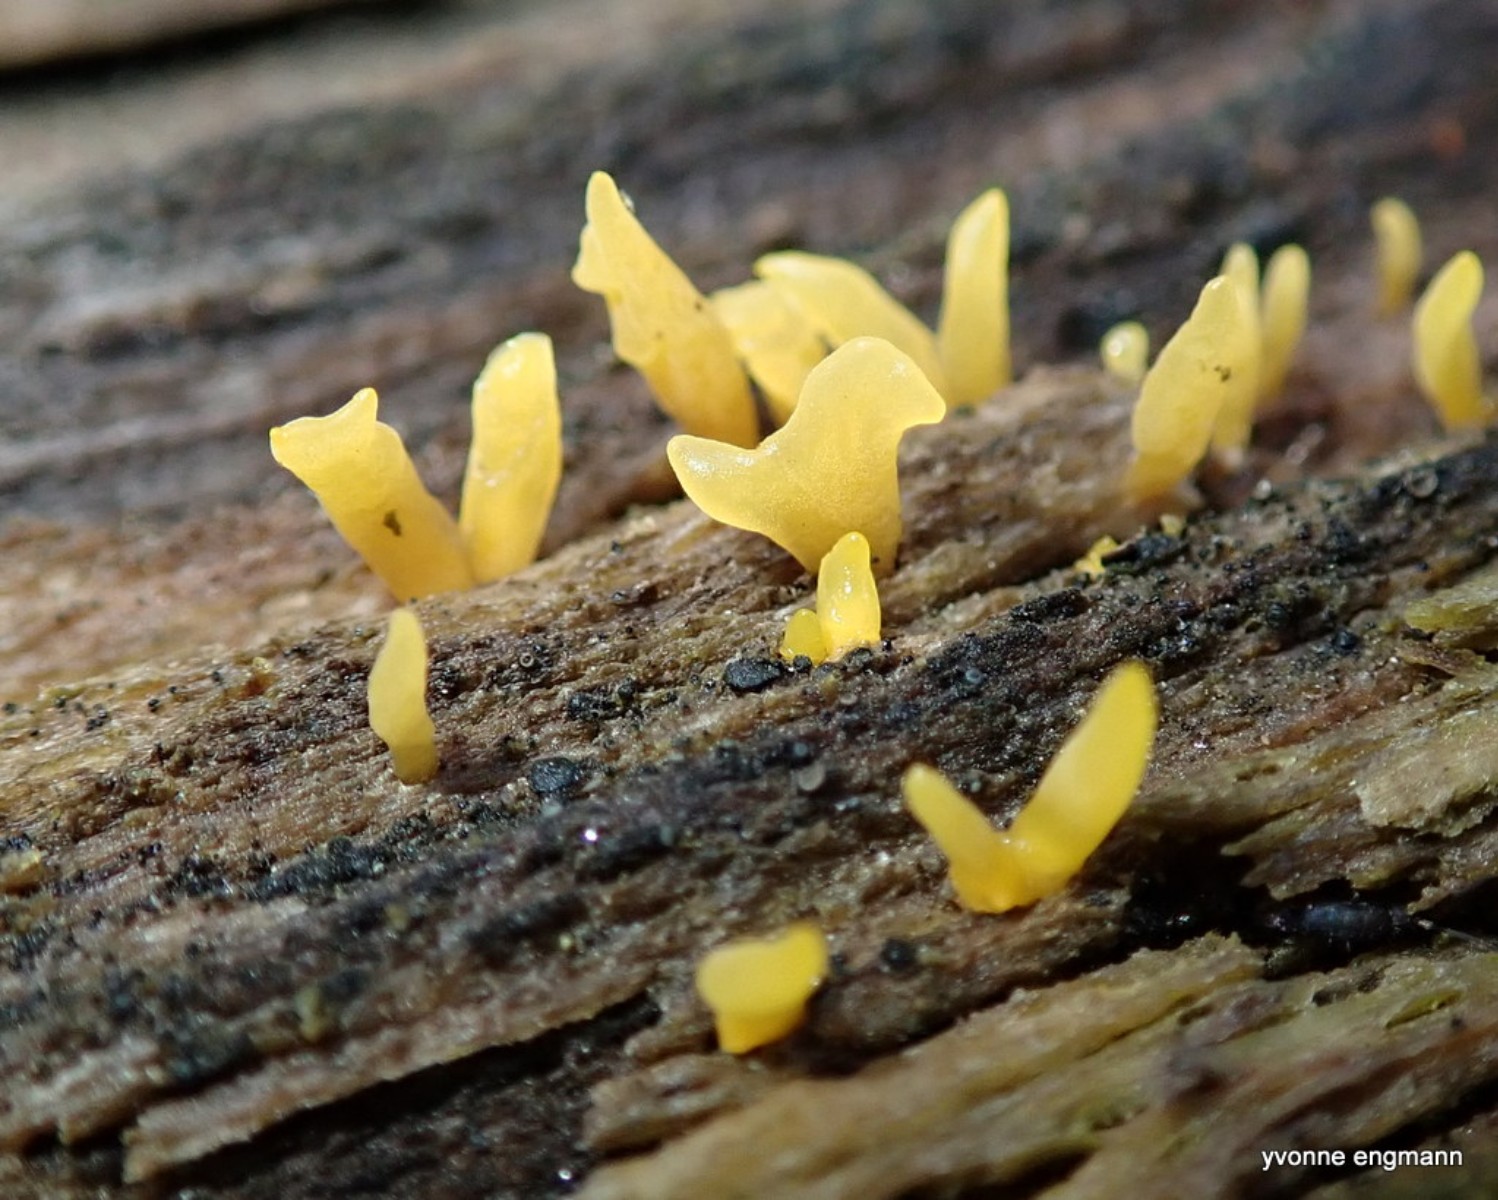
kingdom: Fungi
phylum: Basidiomycota
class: Dacrymycetes
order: Dacrymycetales
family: Dacrymycetaceae
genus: Calocera
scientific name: Calocera cornea
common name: liden guldgaffel
